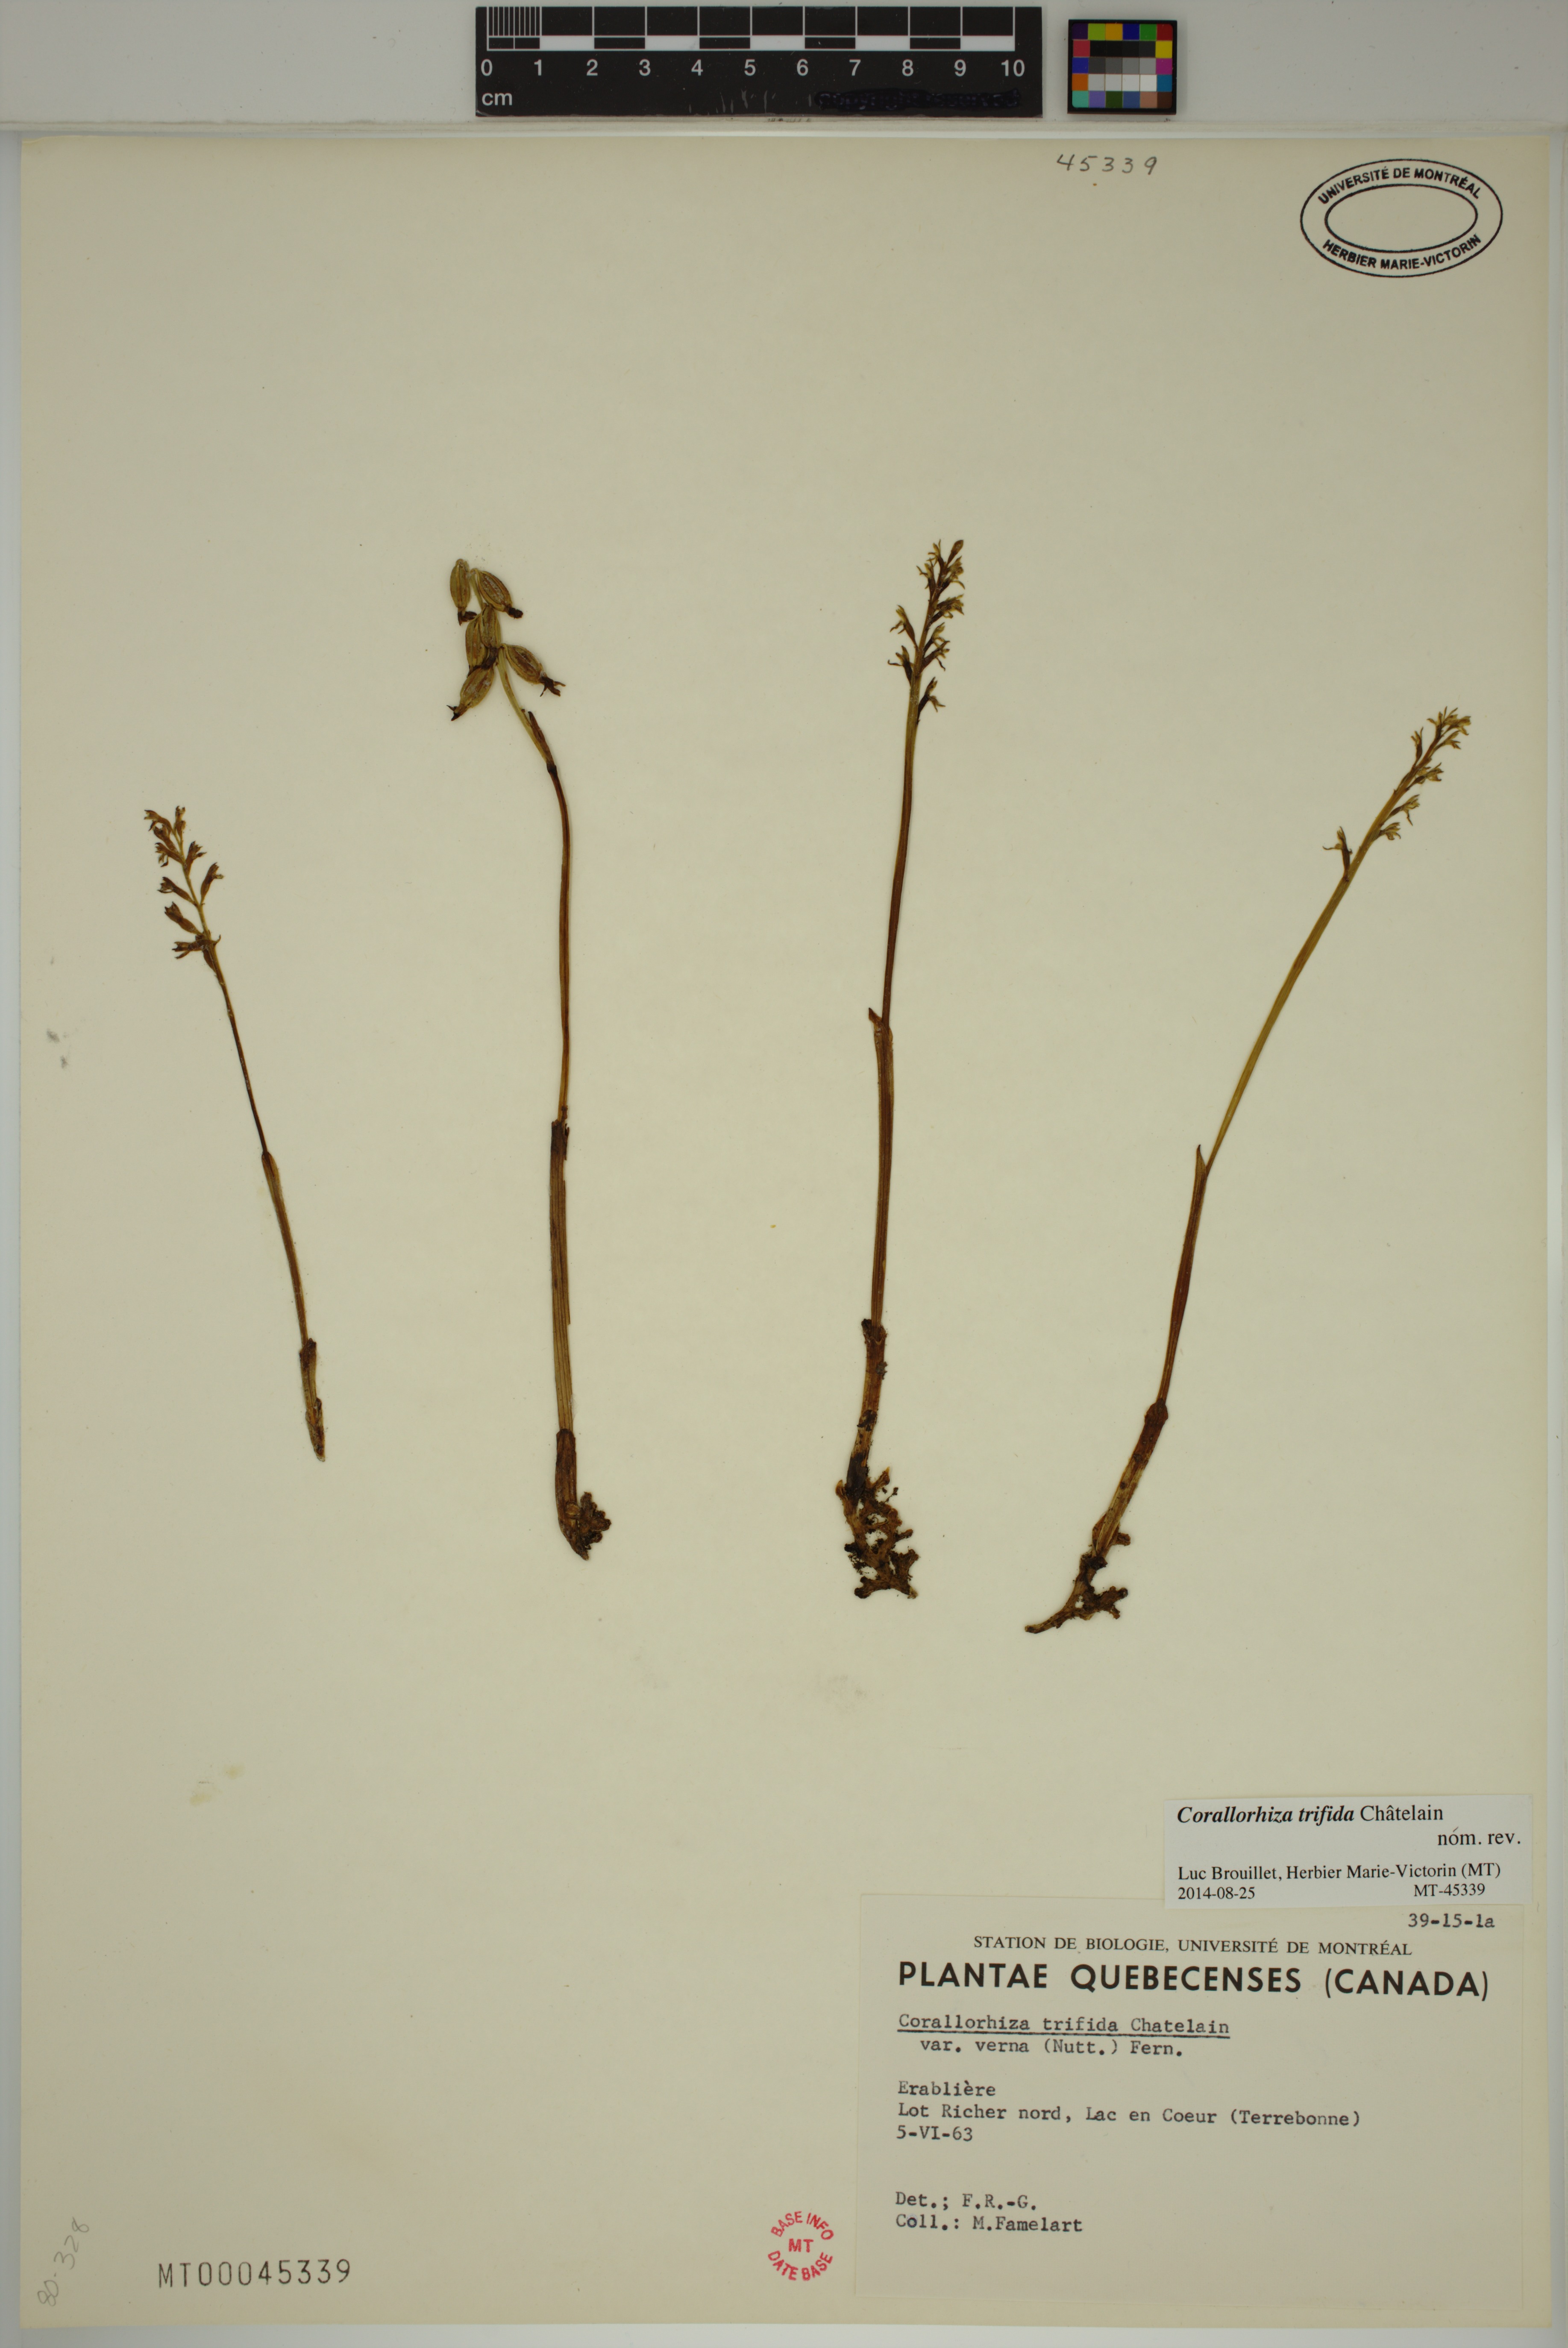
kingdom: Plantae
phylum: Tracheophyta
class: Liliopsida
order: Asparagales
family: Orchidaceae
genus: Corallorhiza
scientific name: Corallorhiza trifida
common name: Yellow coralroot
